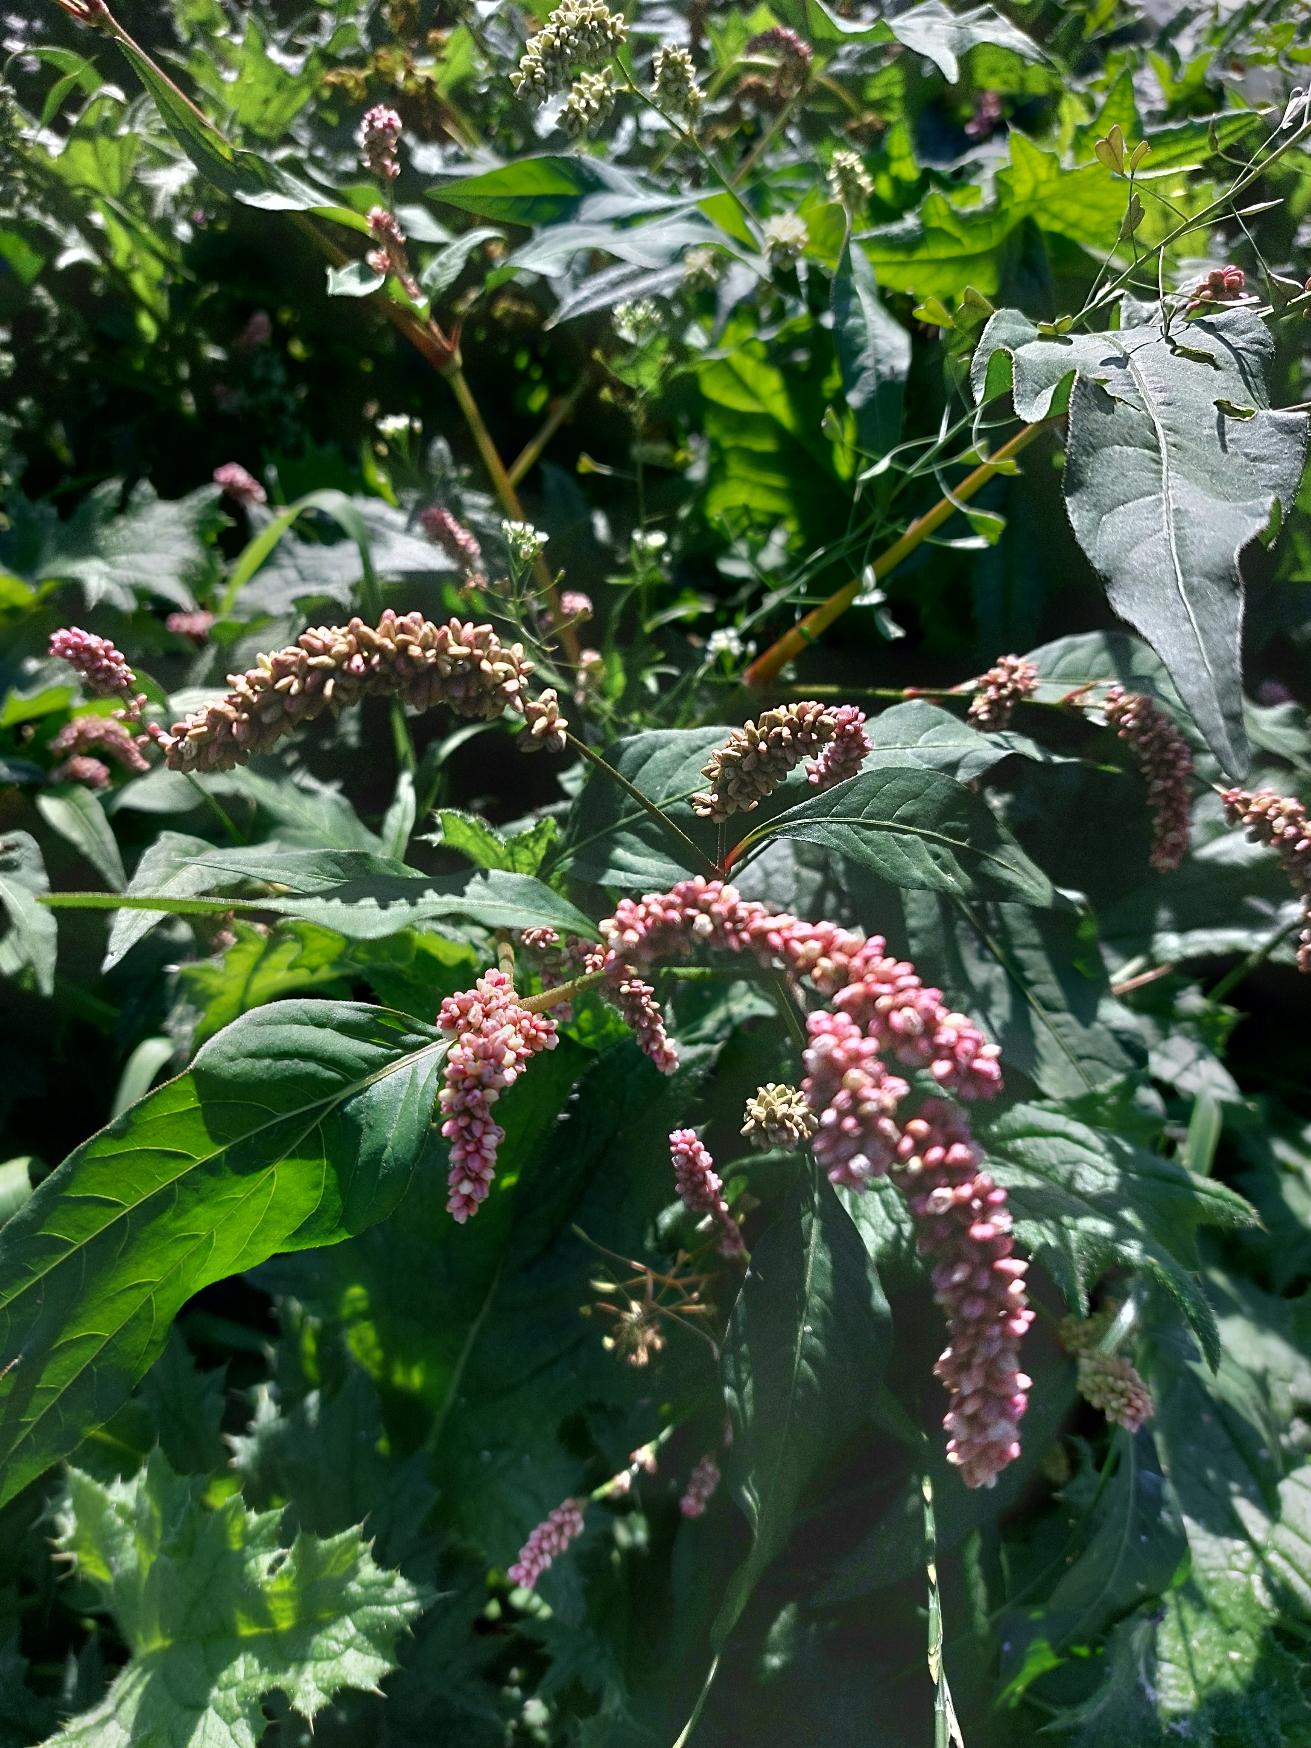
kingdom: Plantae
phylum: Tracheophyta
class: Magnoliopsida
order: Caryophyllales
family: Polygonaceae
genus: Persicaria
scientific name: Persicaria lapathifolia
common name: Knudet pileurt
